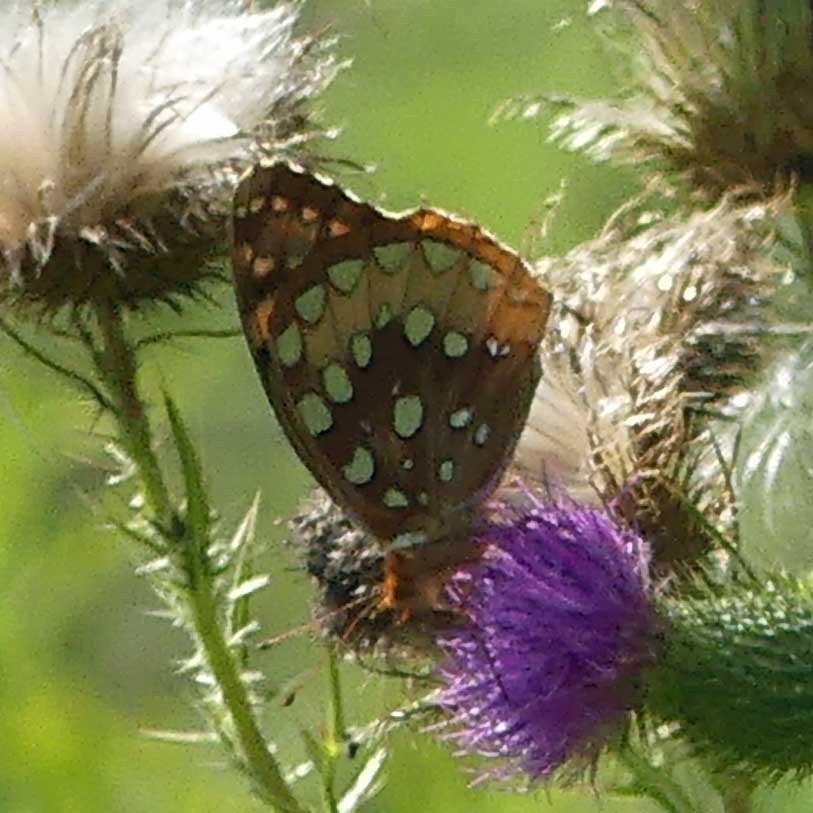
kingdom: Animalia
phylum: Arthropoda
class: Insecta
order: Lepidoptera
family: Nymphalidae
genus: Speyeria
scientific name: Speyeria cybele
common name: Great Spangled Fritillary
